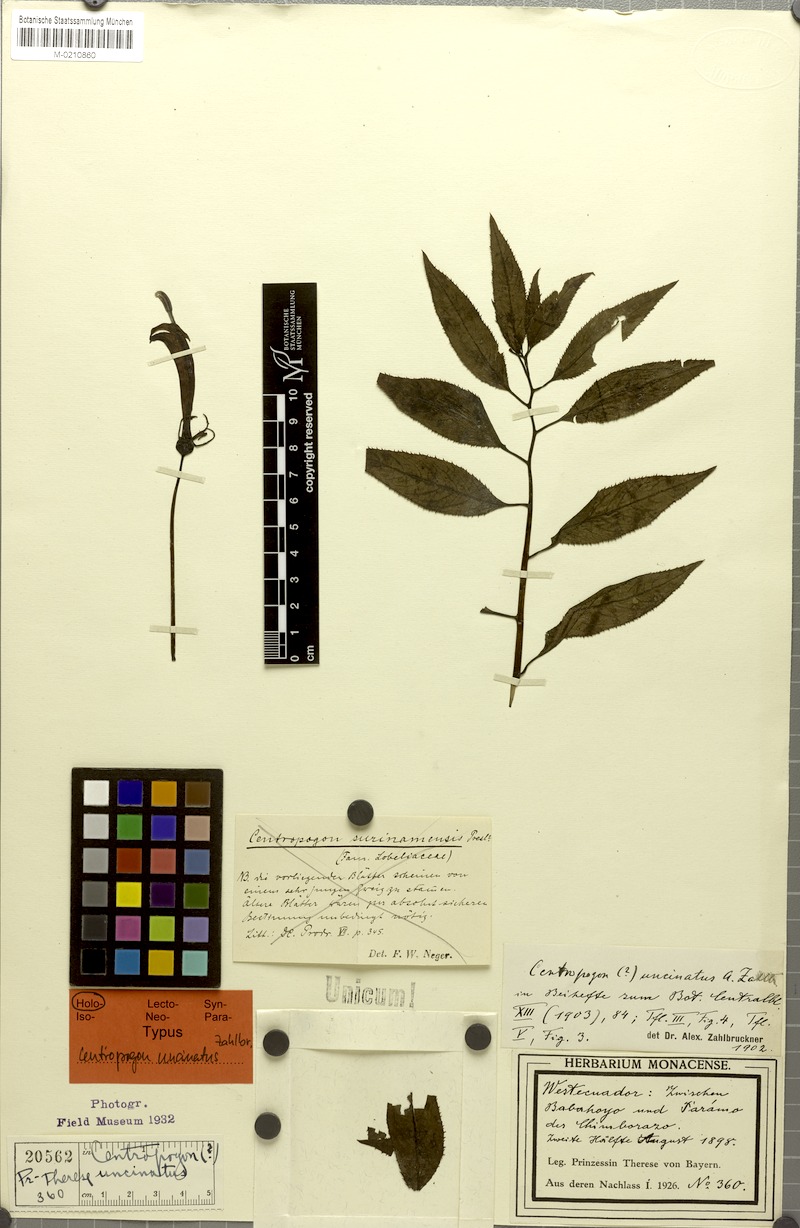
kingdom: Plantae
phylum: Tracheophyta
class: Magnoliopsida
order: Asterales
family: Campanulaceae
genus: Centropogon
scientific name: Centropogon uncinatus
